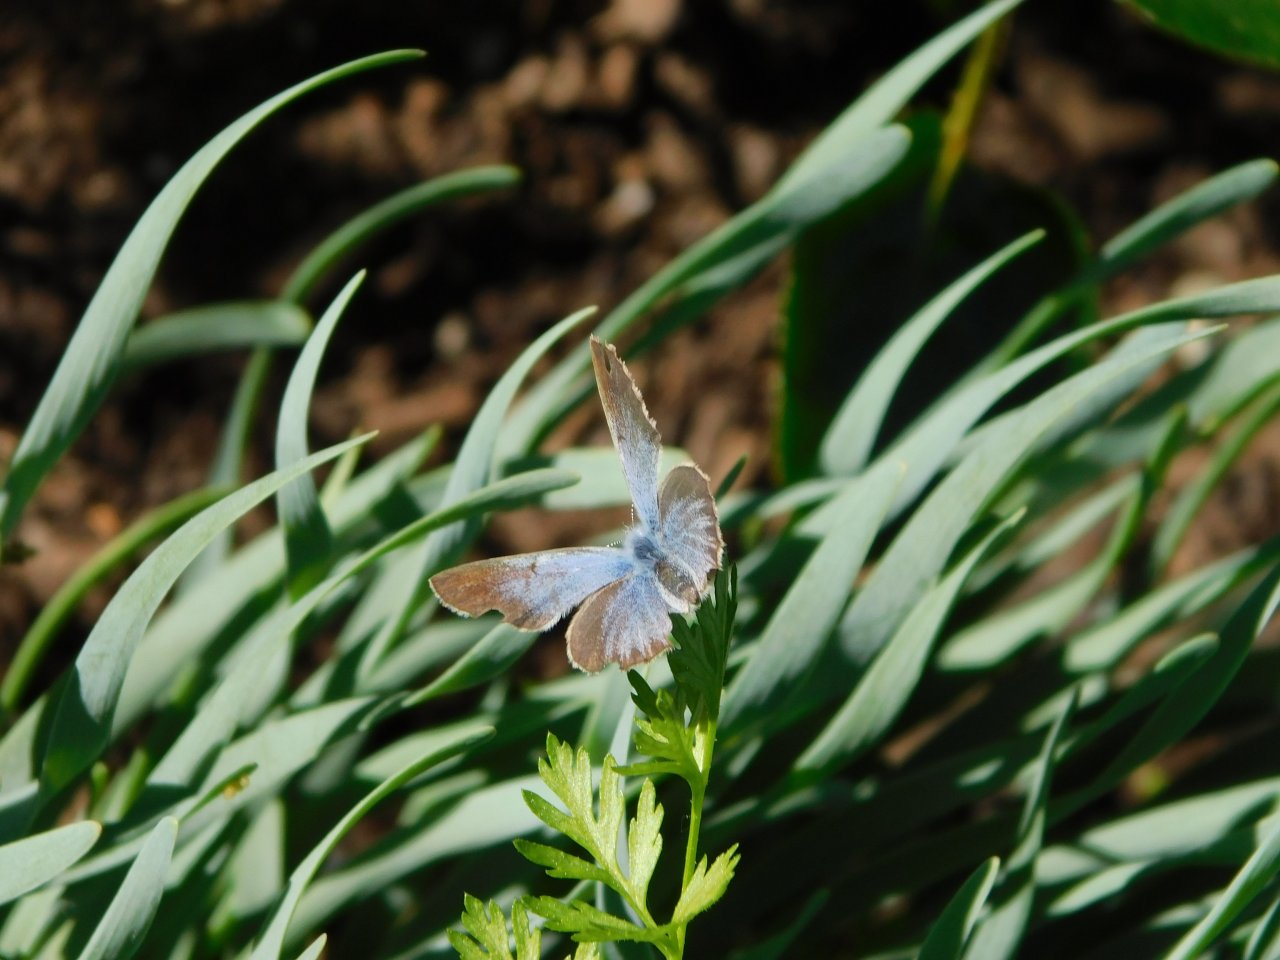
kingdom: Animalia
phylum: Arthropoda
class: Insecta
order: Lepidoptera
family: Lycaenidae
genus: Glaucopsyche
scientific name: Glaucopsyche lygdamus
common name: Silvery Blue
